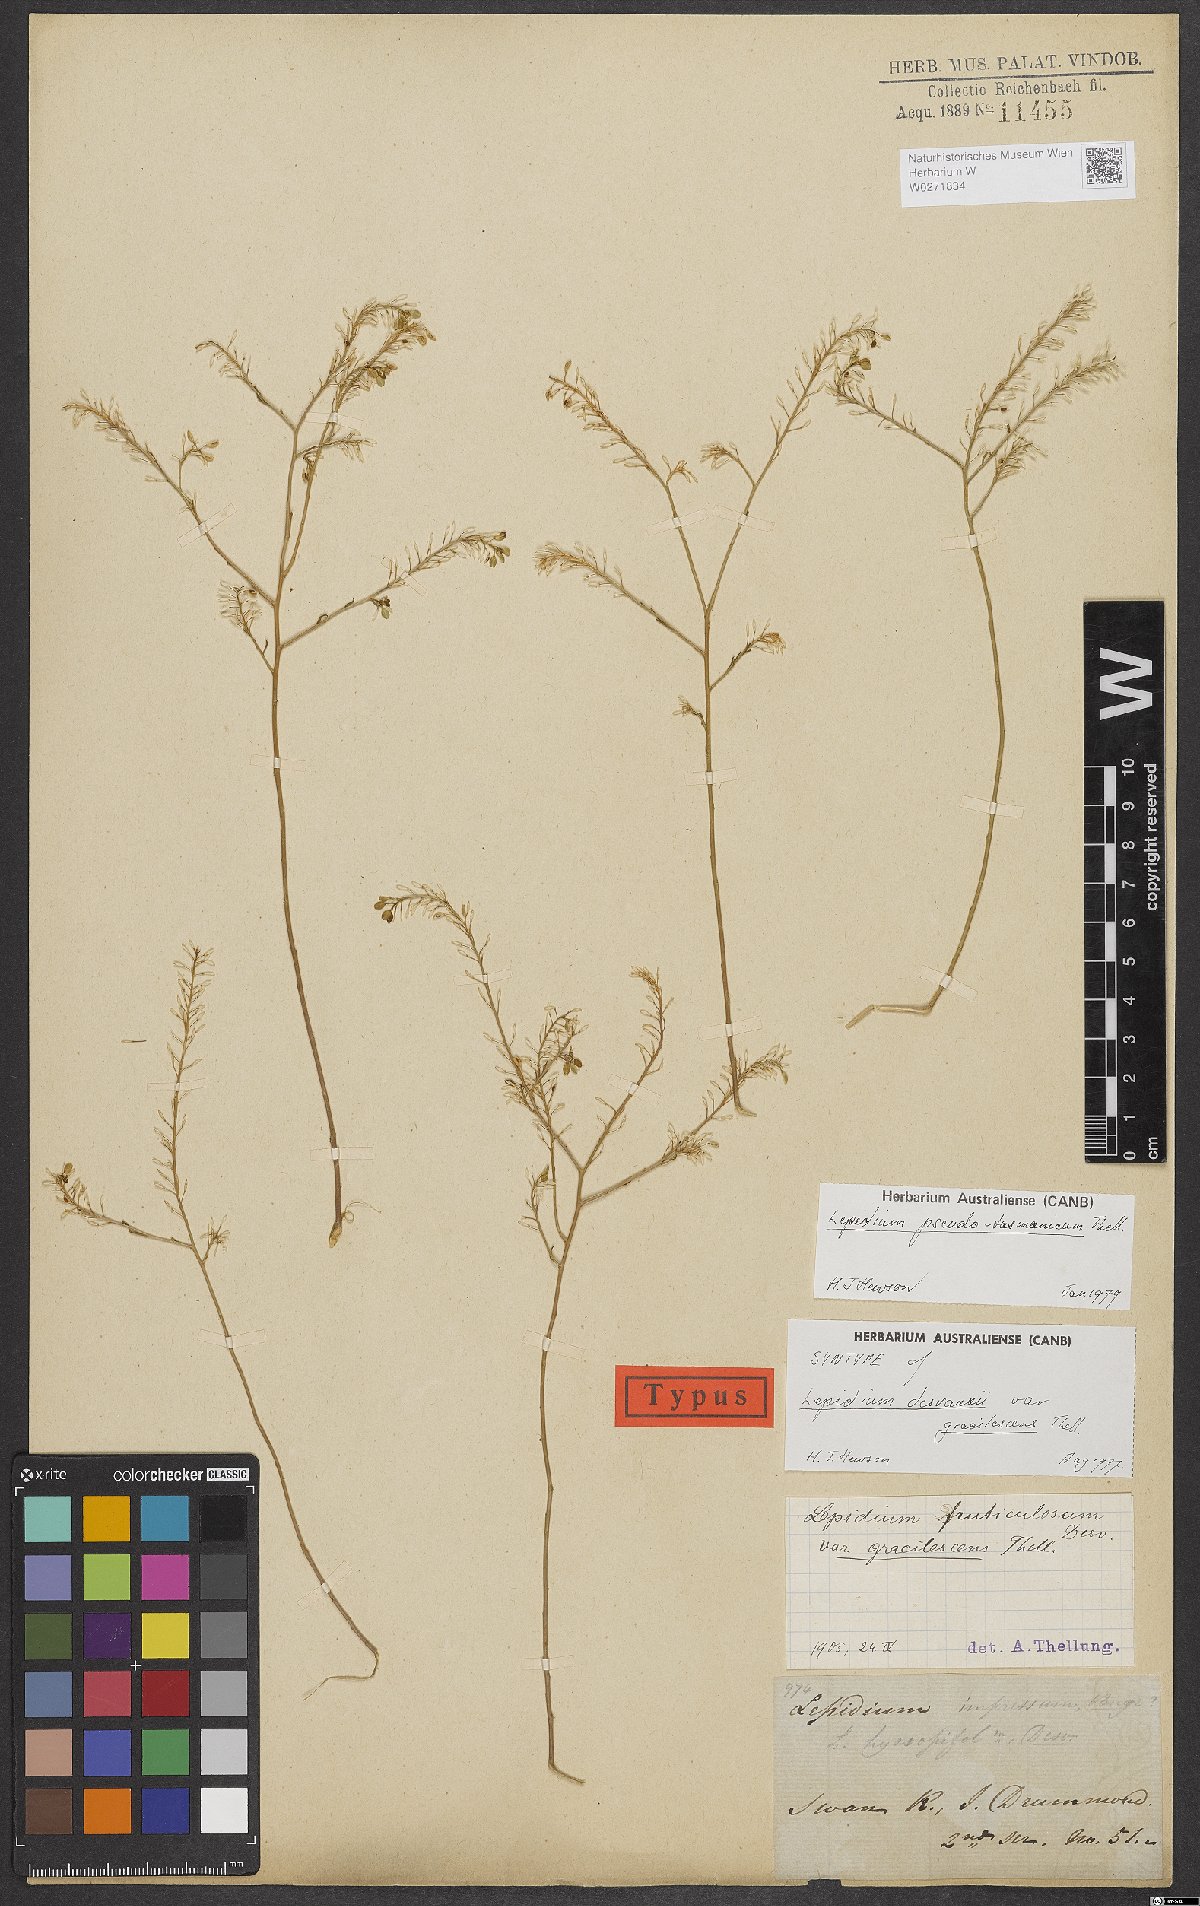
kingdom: Plantae
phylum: Tracheophyta
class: Magnoliopsida
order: Brassicales
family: Brassicaceae
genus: Lepidium
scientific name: Lepidium desvauxii
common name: Bushy pepperwort
